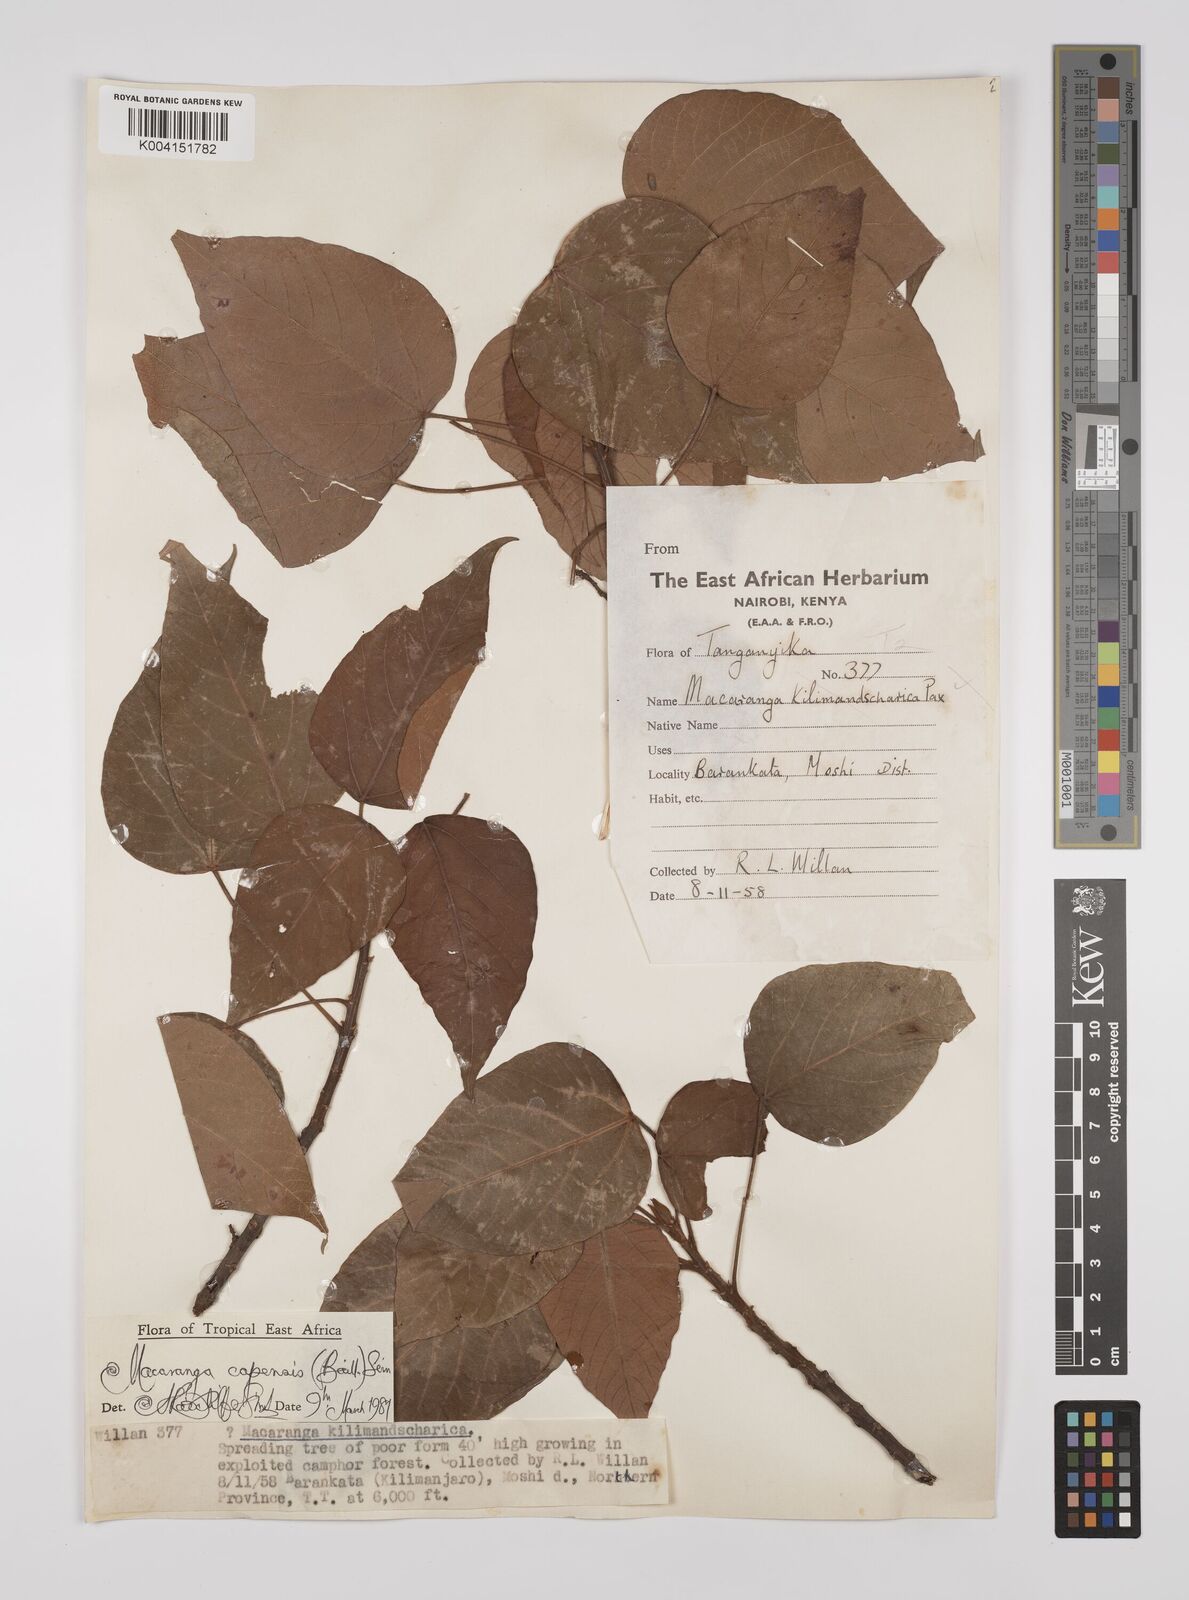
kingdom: Plantae
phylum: Tracheophyta
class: Magnoliopsida
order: Malpighiales
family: Euphorbiaceae
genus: Macaranga
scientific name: Macaranga capensis
